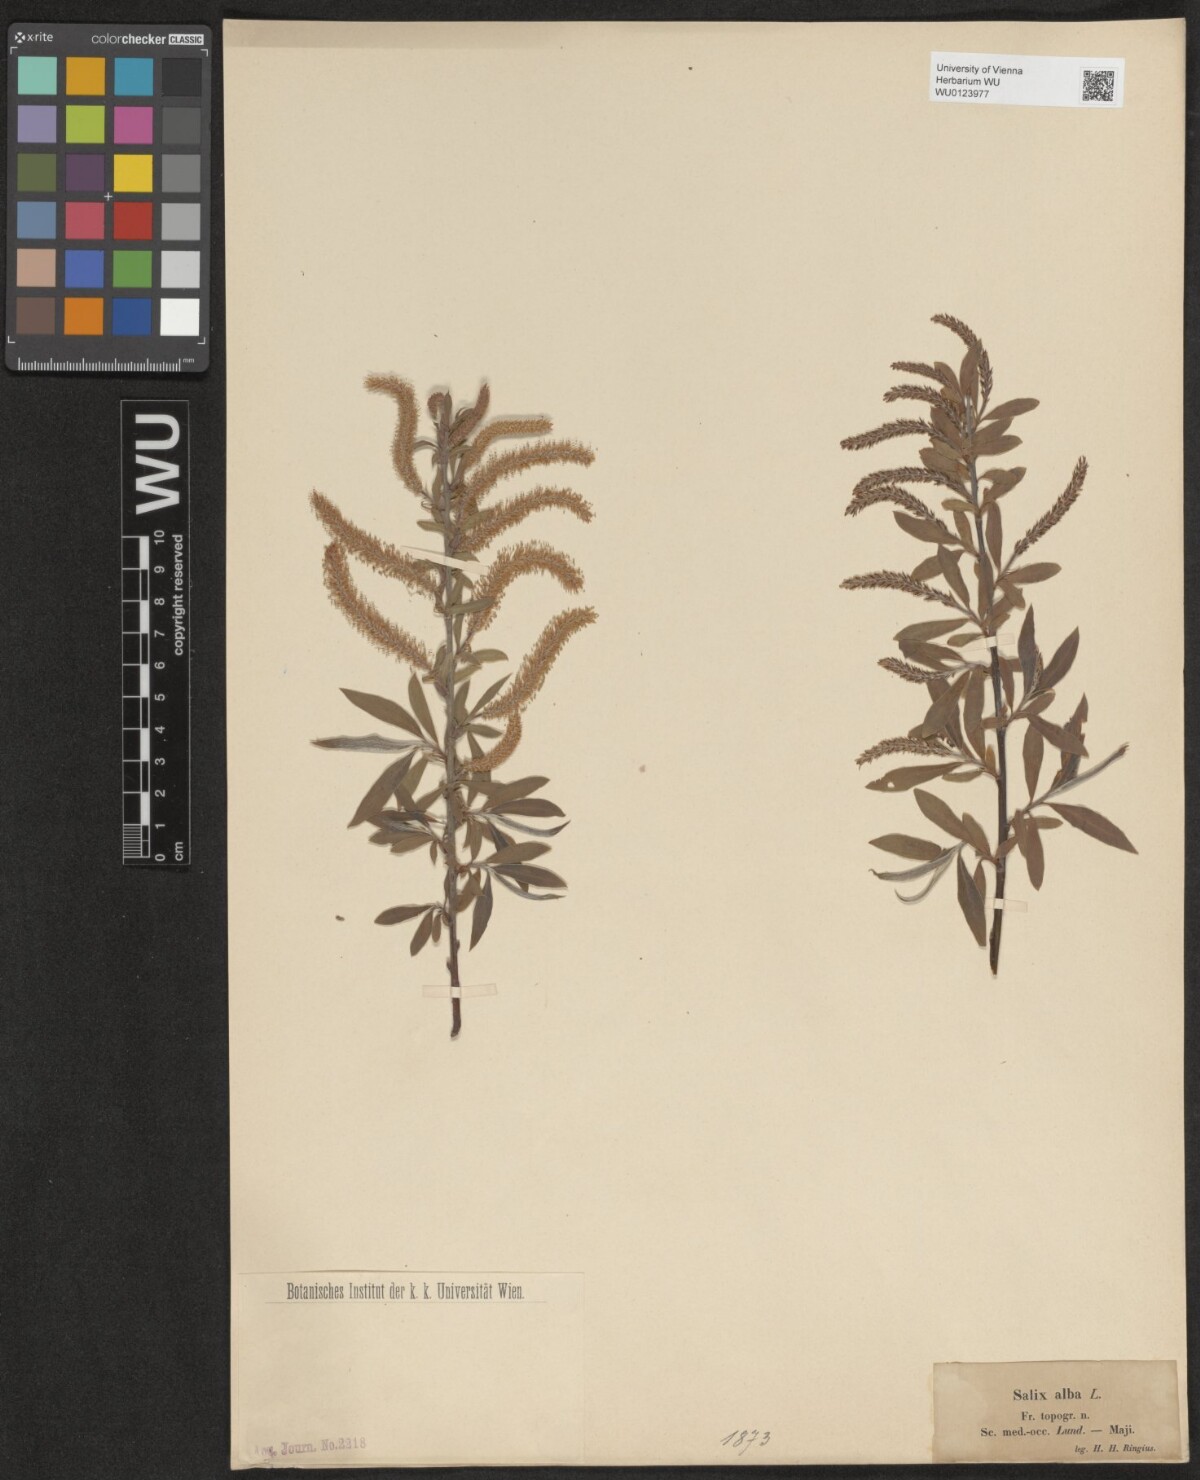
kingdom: Plantae
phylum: Tracheophyta
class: Magnoliopsida
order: Malpighiales
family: Salicaceae
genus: Salix
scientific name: Salix alba
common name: White willow
